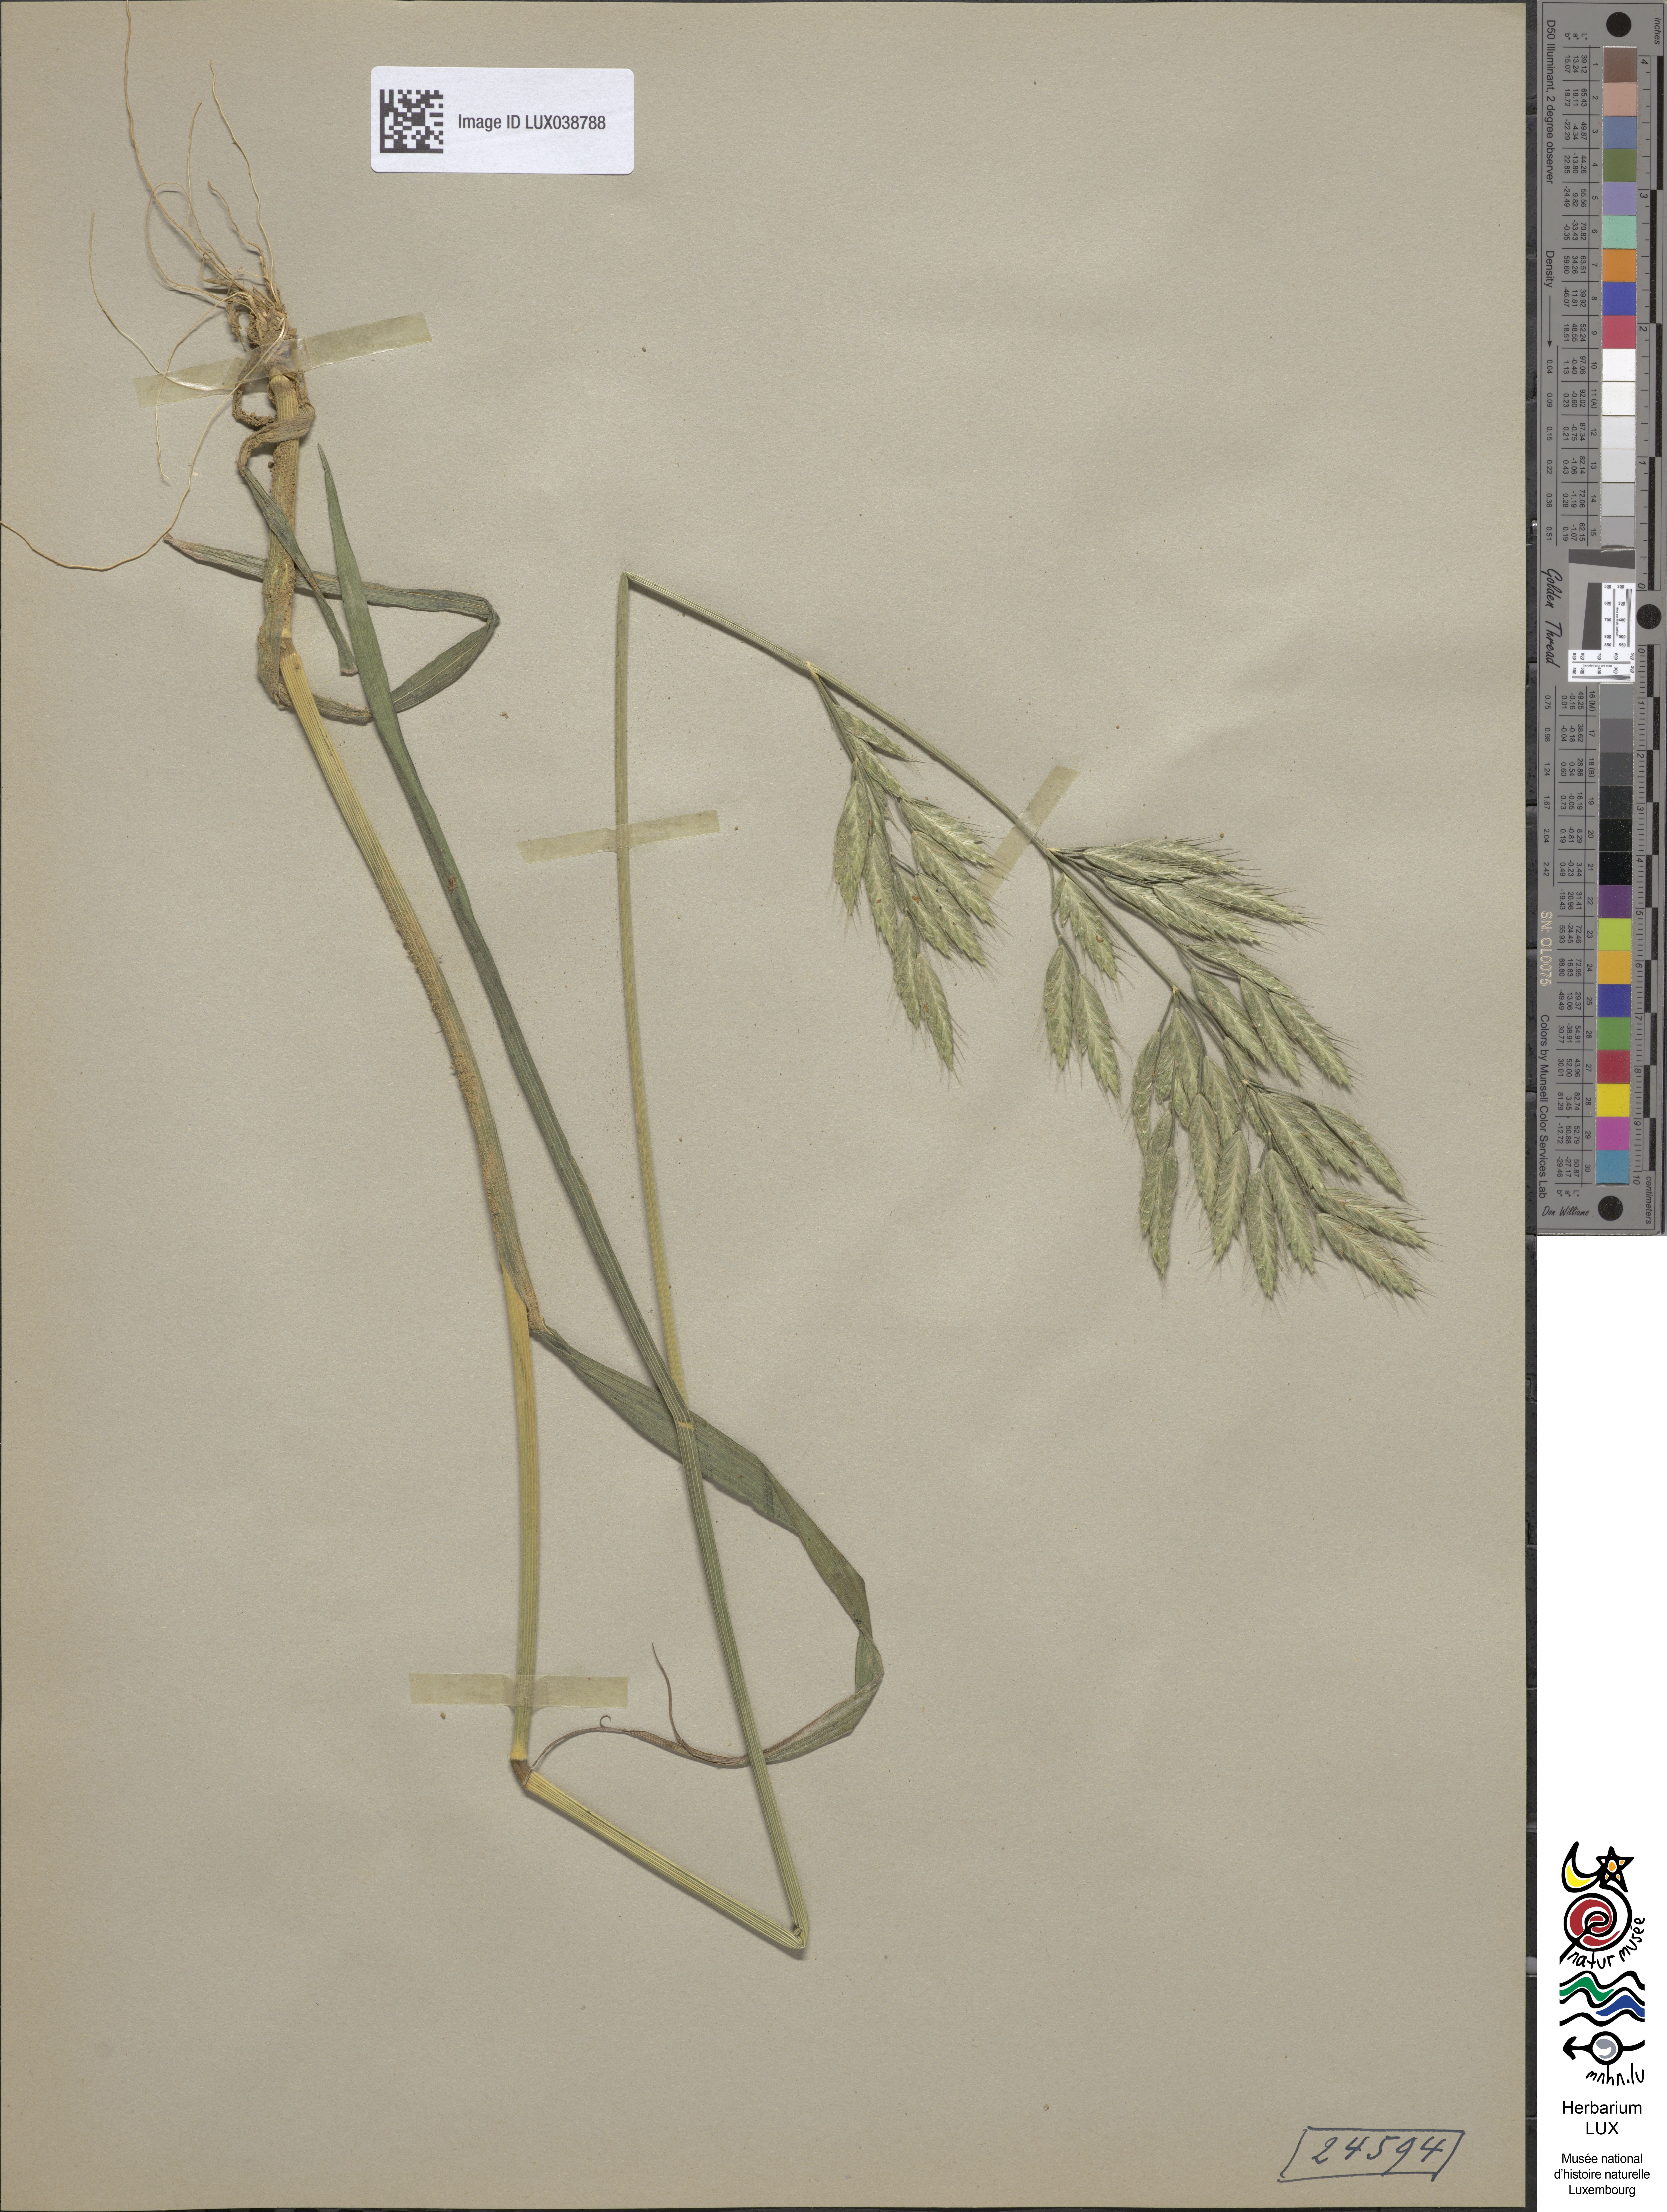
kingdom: Plantae
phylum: Tracheophyta
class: Liliopsida
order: Poales
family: Poaceae
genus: Bromus
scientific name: Bromus hordeaceus
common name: Soft brome
